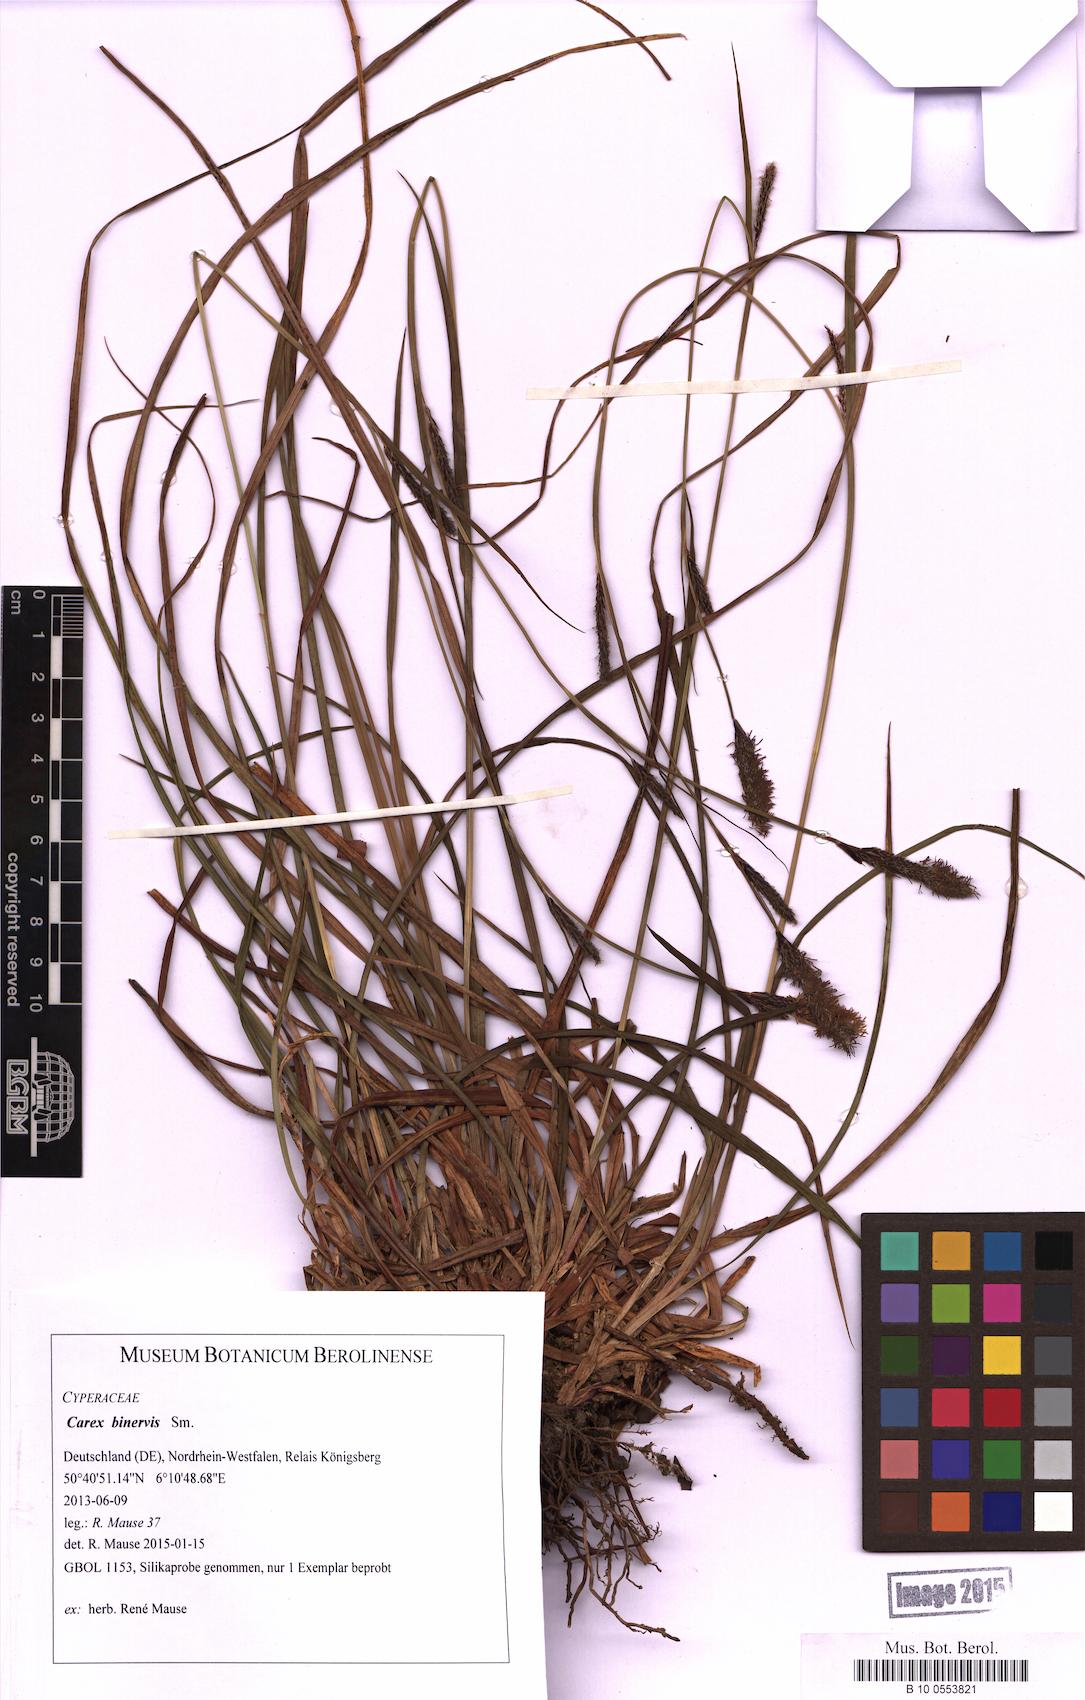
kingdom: Plantae
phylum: Tracheophyta
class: Liliopsida
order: Poales
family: Cyperaceae
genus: Carex
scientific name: Carex binervis
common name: Green-ribbed sedge
